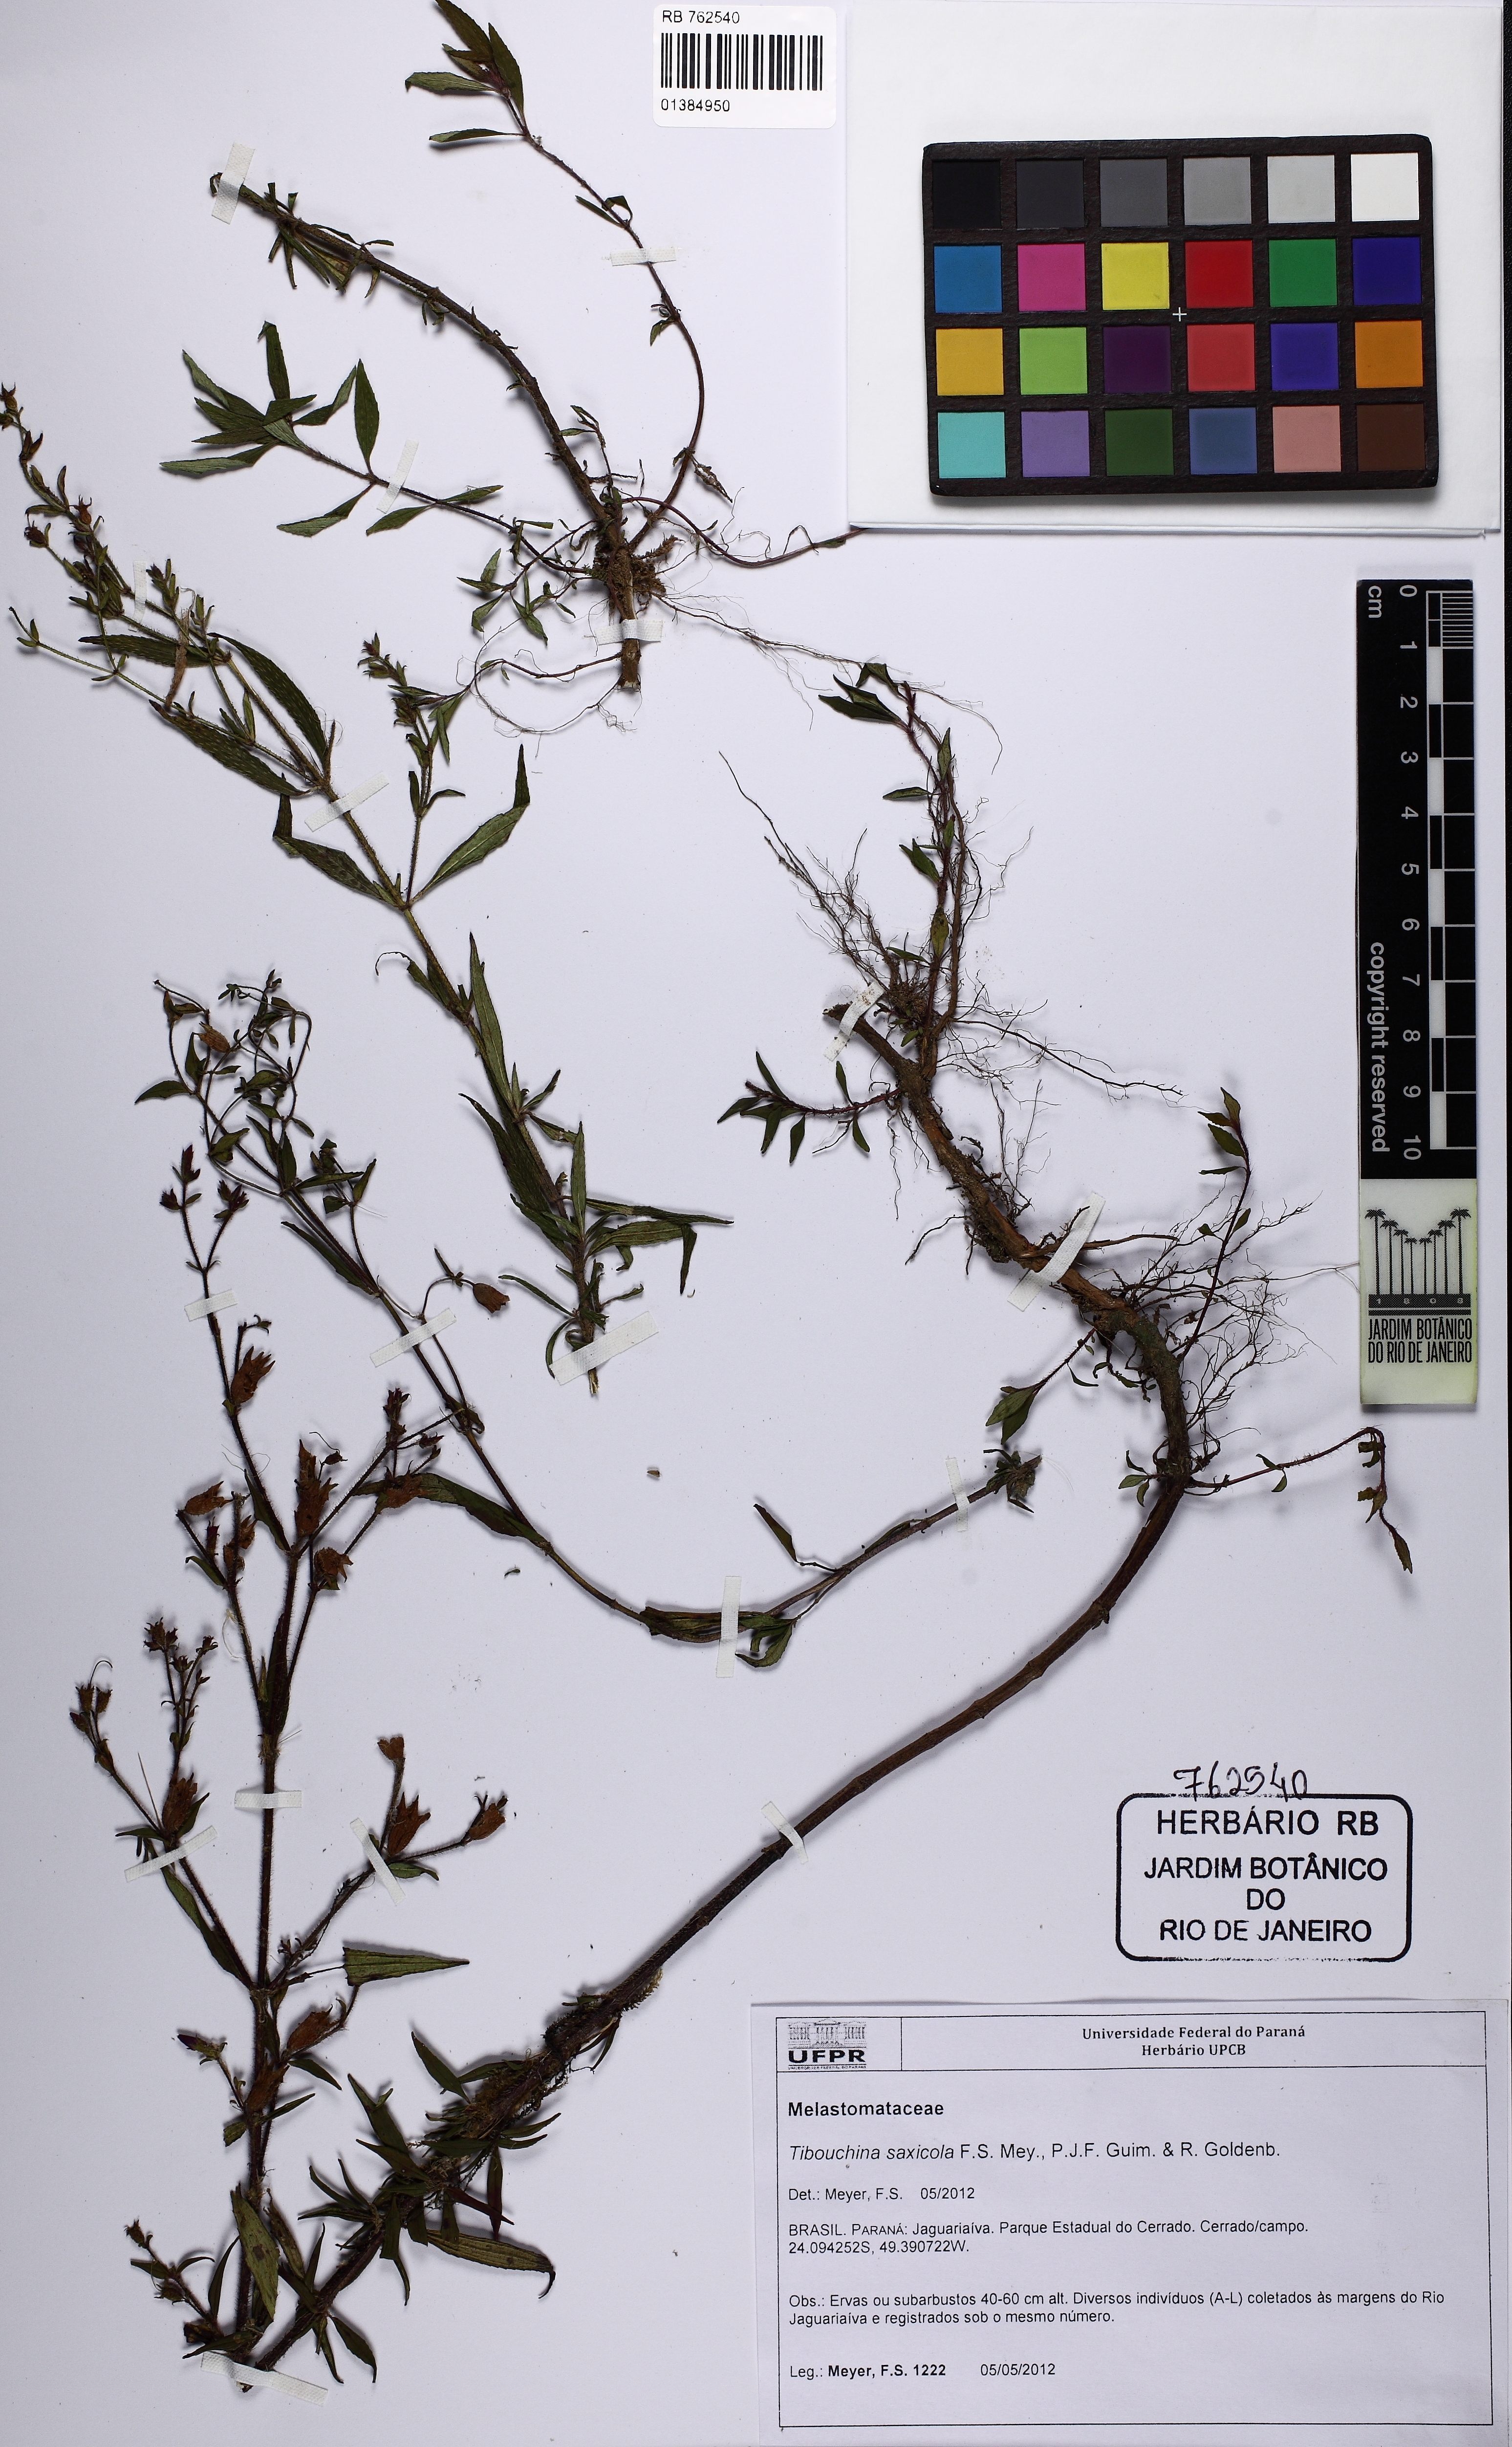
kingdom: Plantae
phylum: Tracheophyta
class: Magnoliopsida
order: Myrtales
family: Melastomataceae
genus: Chaetogastra
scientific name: Chaetogastra saxicola
